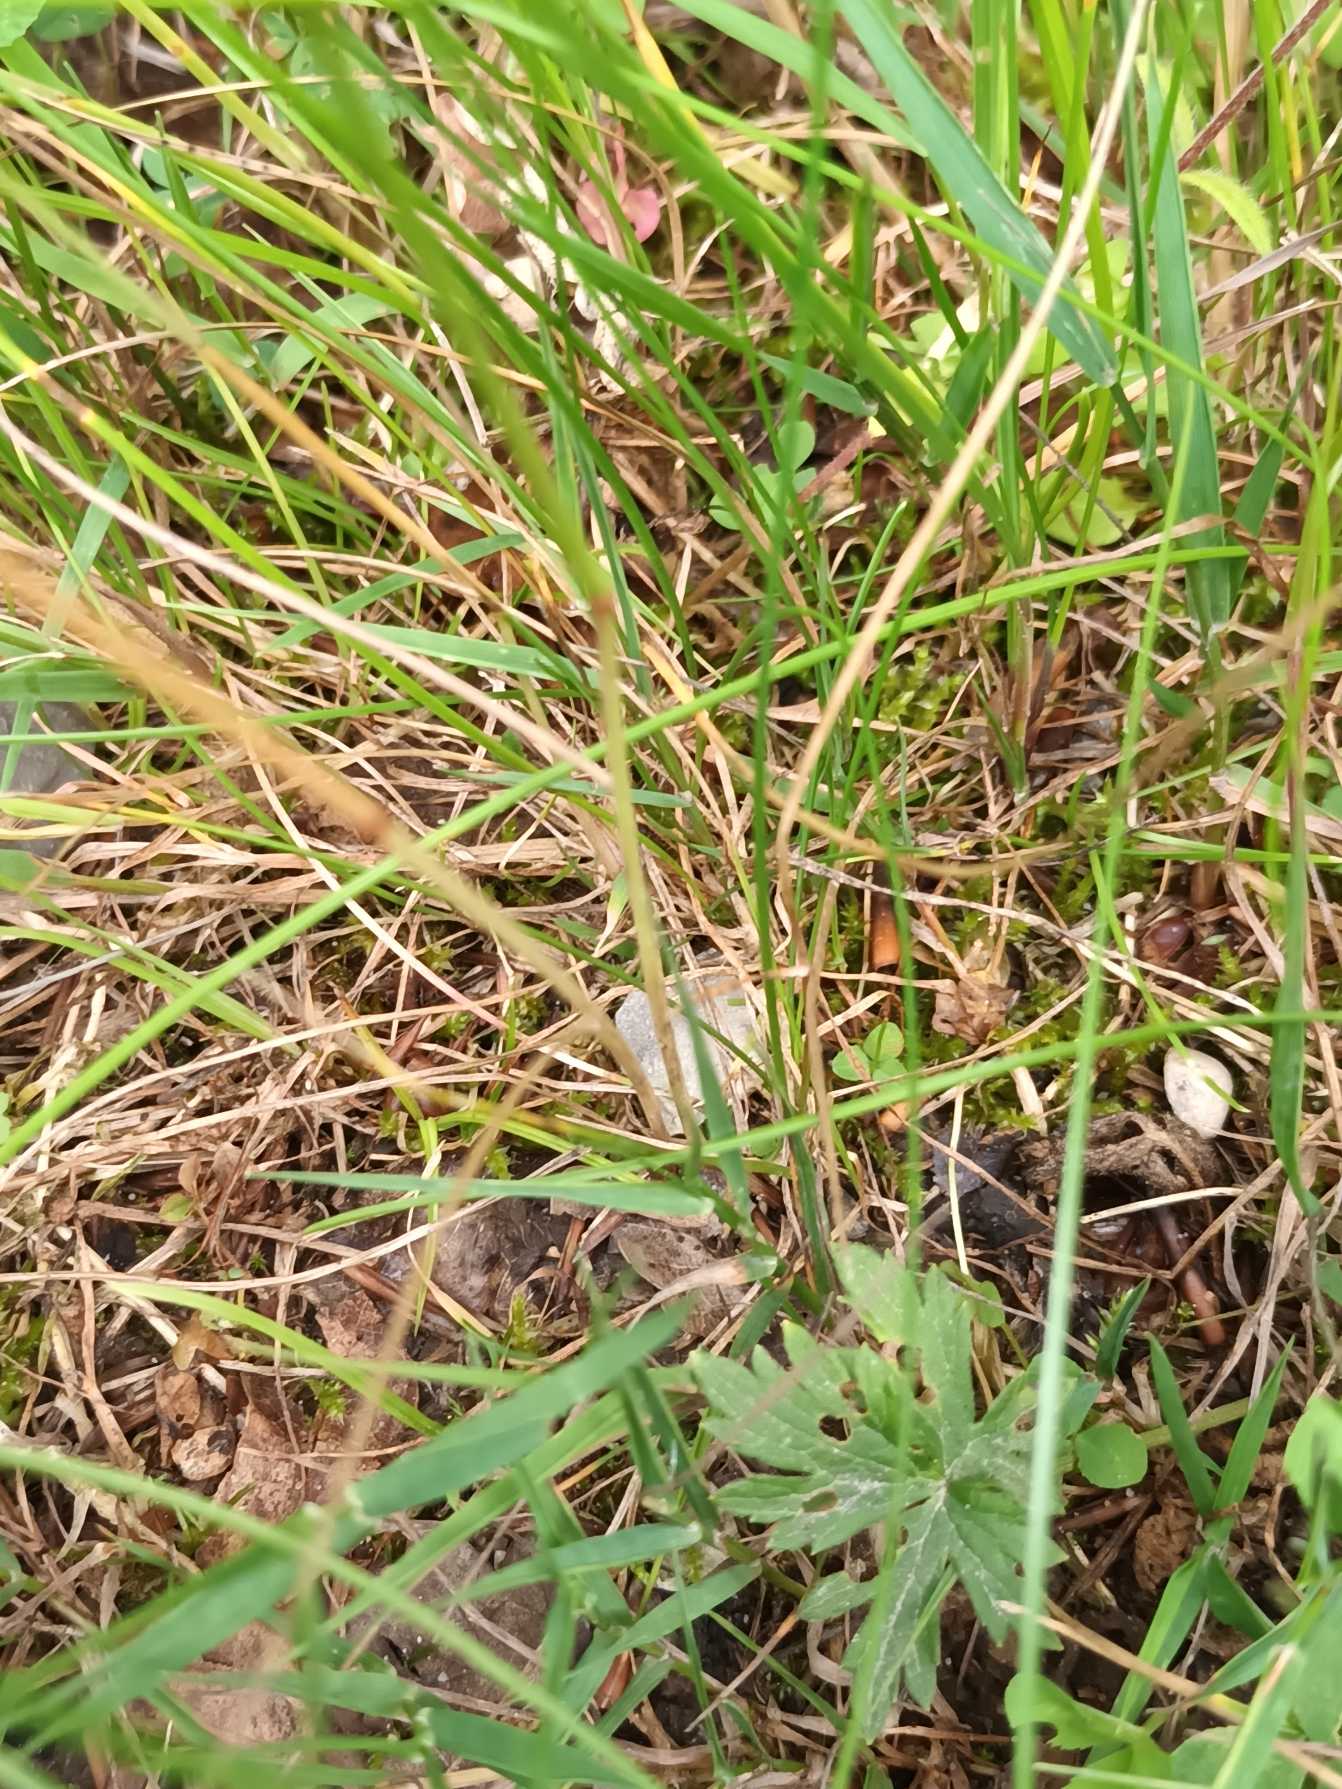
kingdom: Plantae
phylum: Tracheophyta
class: Liliopsida
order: Poales
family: Poaceae
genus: Festuca
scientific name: Festuca rubra
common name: Rød svingel
